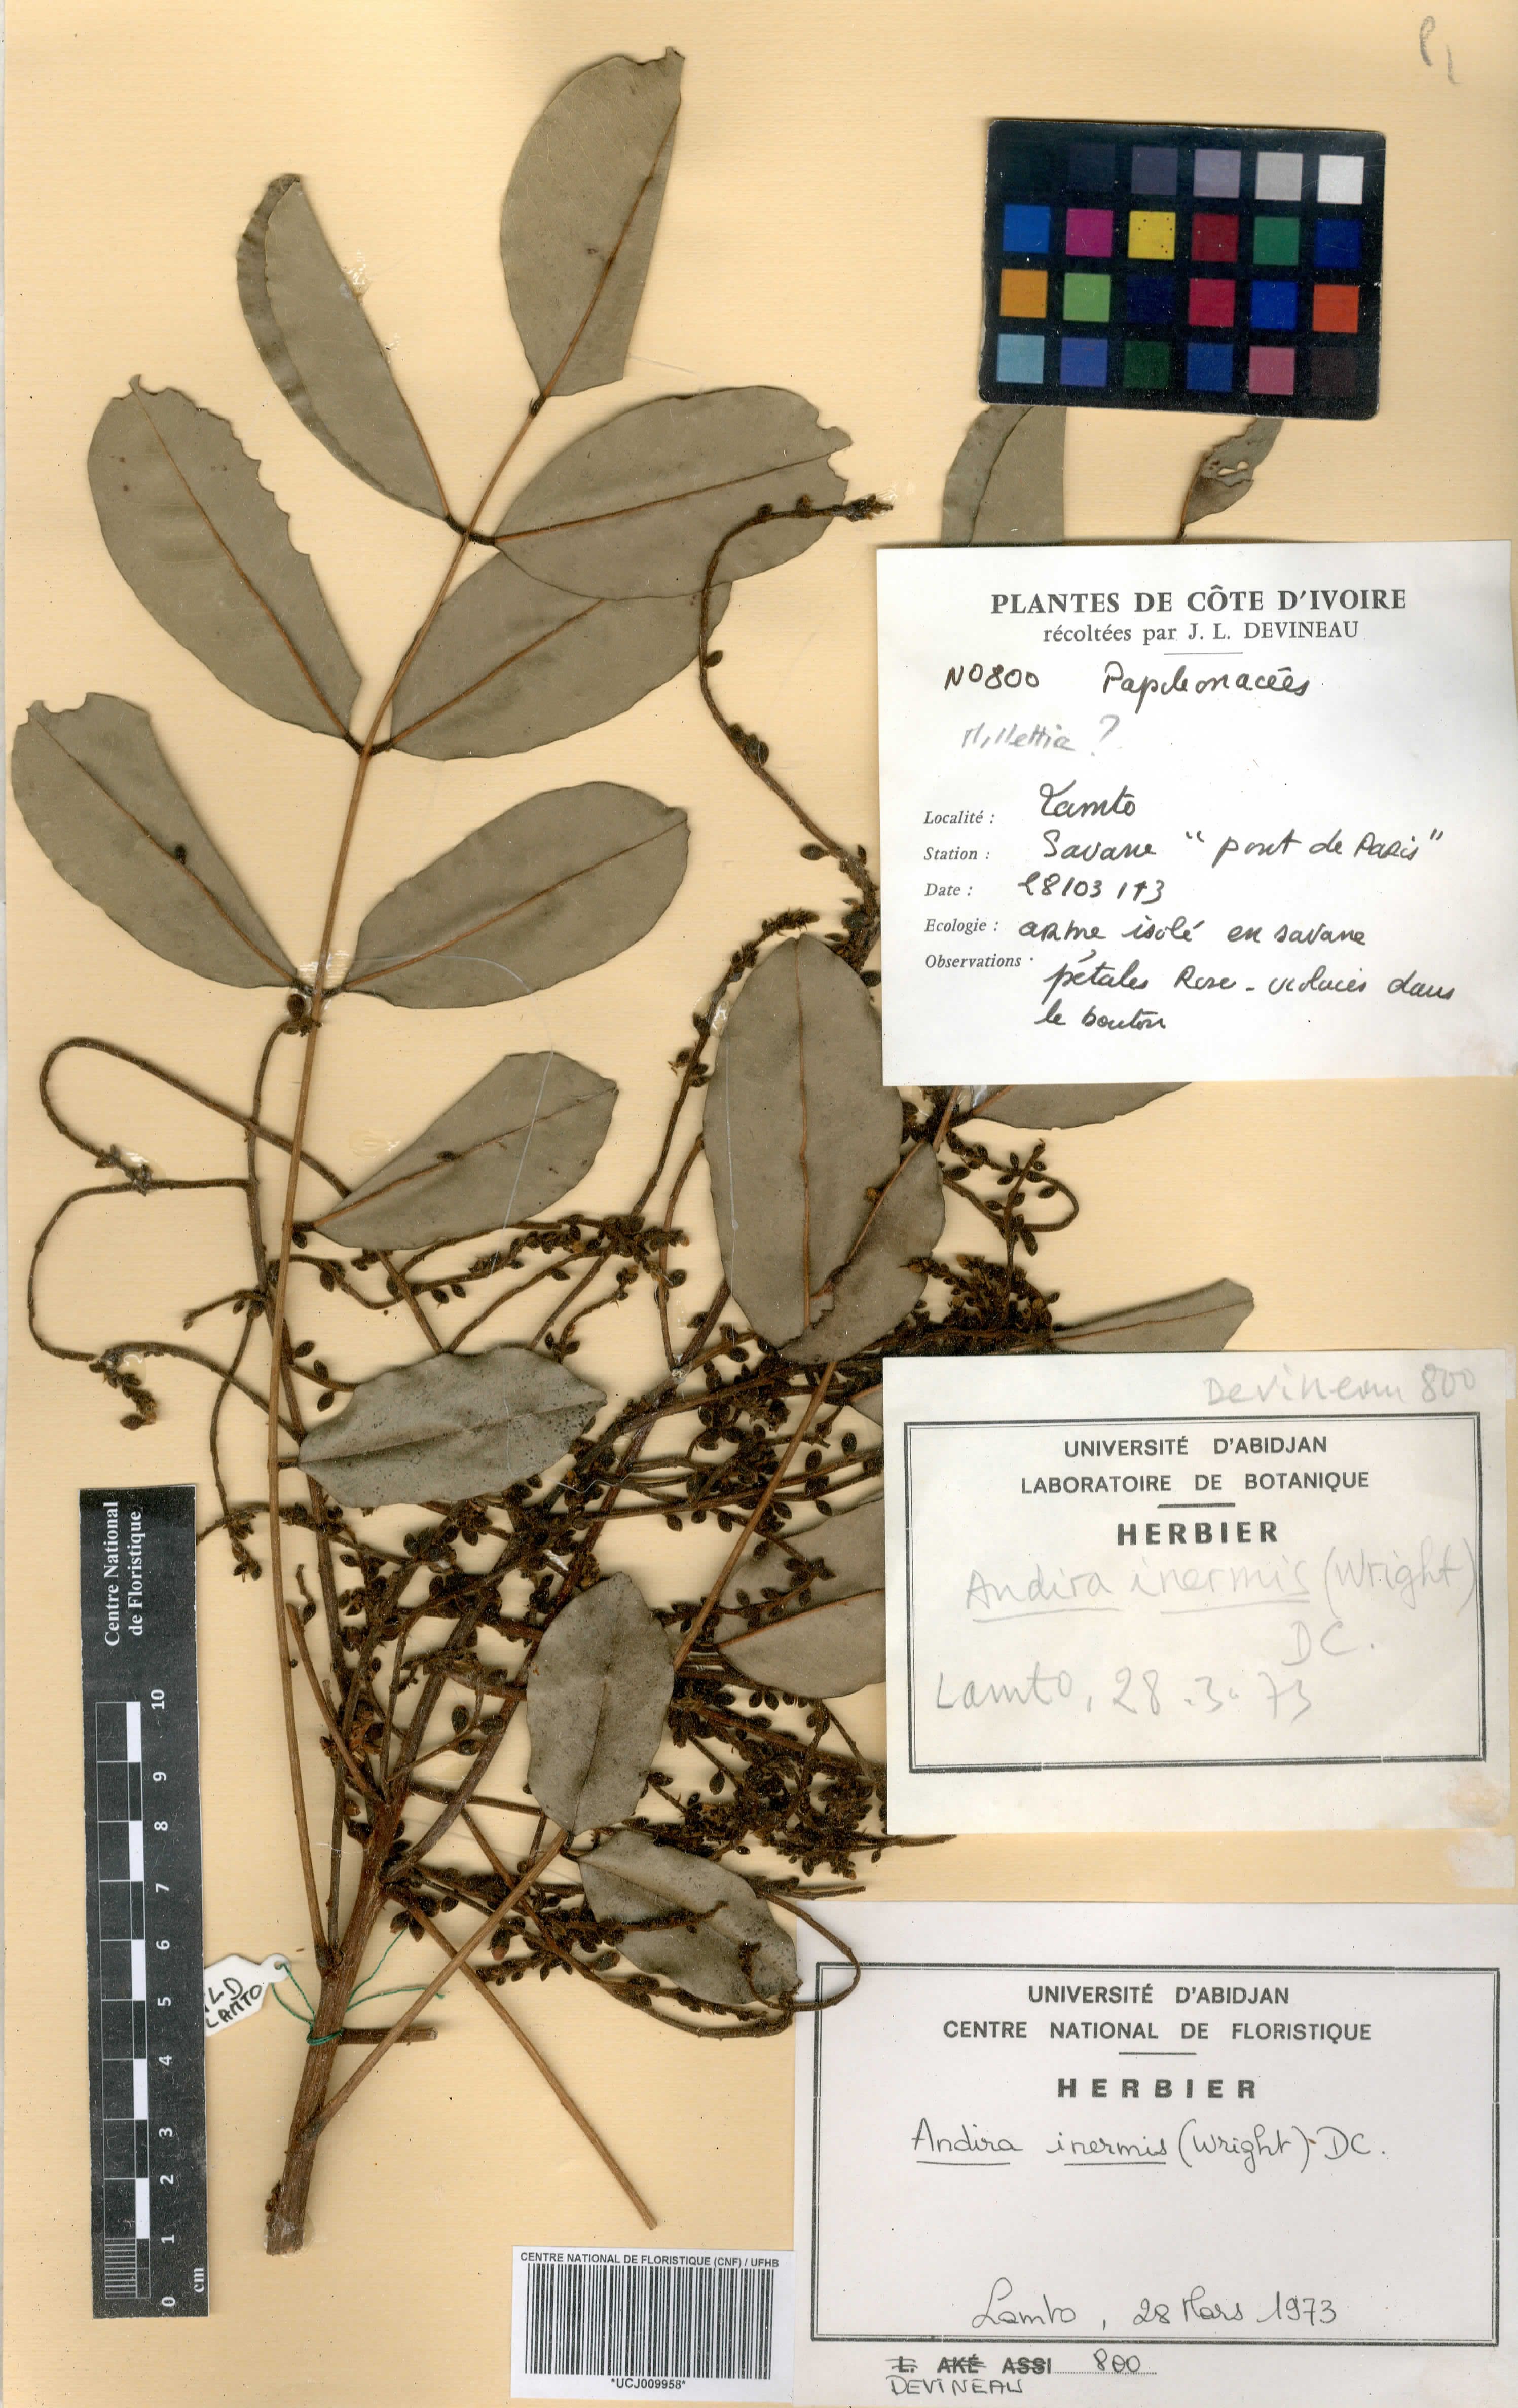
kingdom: Plantae
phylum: Tracheophyta
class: Magnoliopsida
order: Fabales
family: Fabaceae
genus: Andira
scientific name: Andira inermis
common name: Angelin
